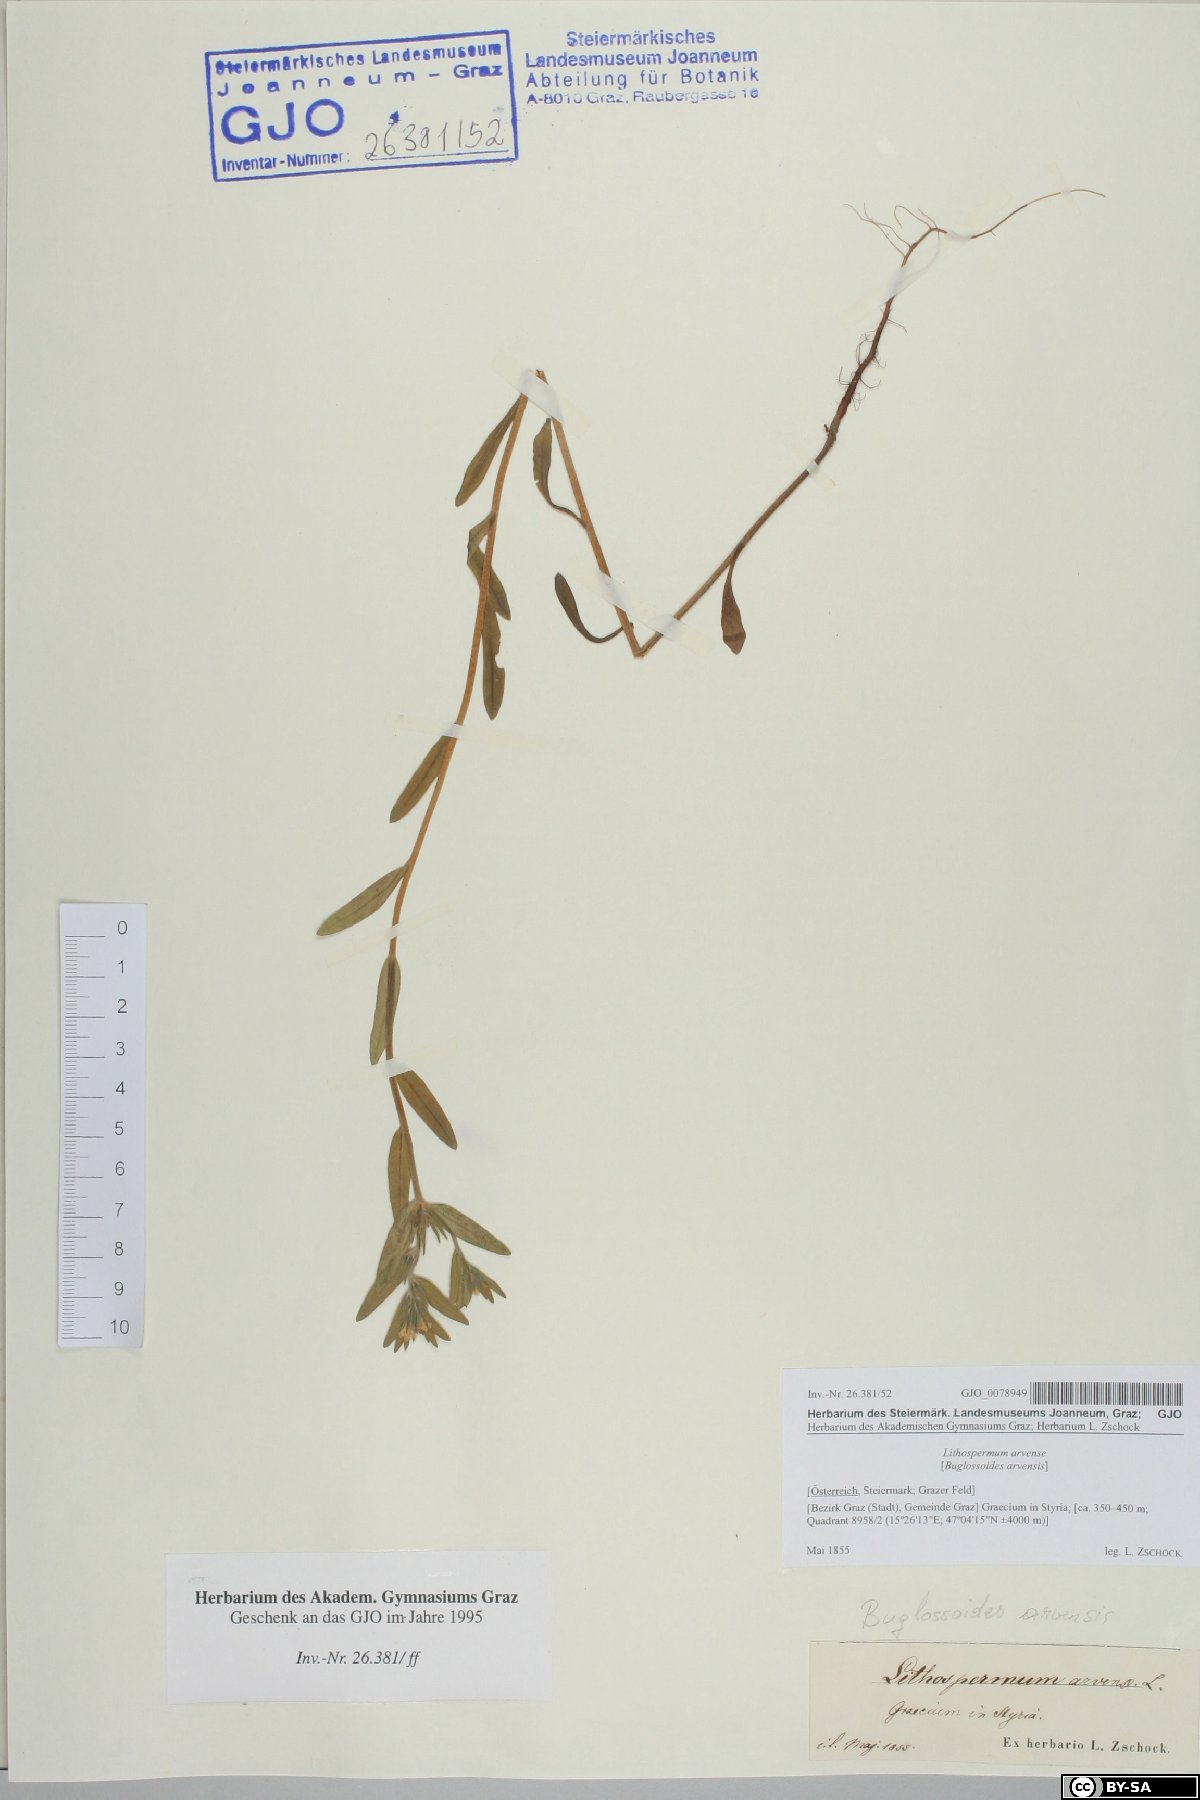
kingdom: Plantae
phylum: Tracheophyta
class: Magnoliopsida
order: Boraginales
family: Boraginaceae
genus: Buglossoides
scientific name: Buglossoides arvensis
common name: Corn gromwell
